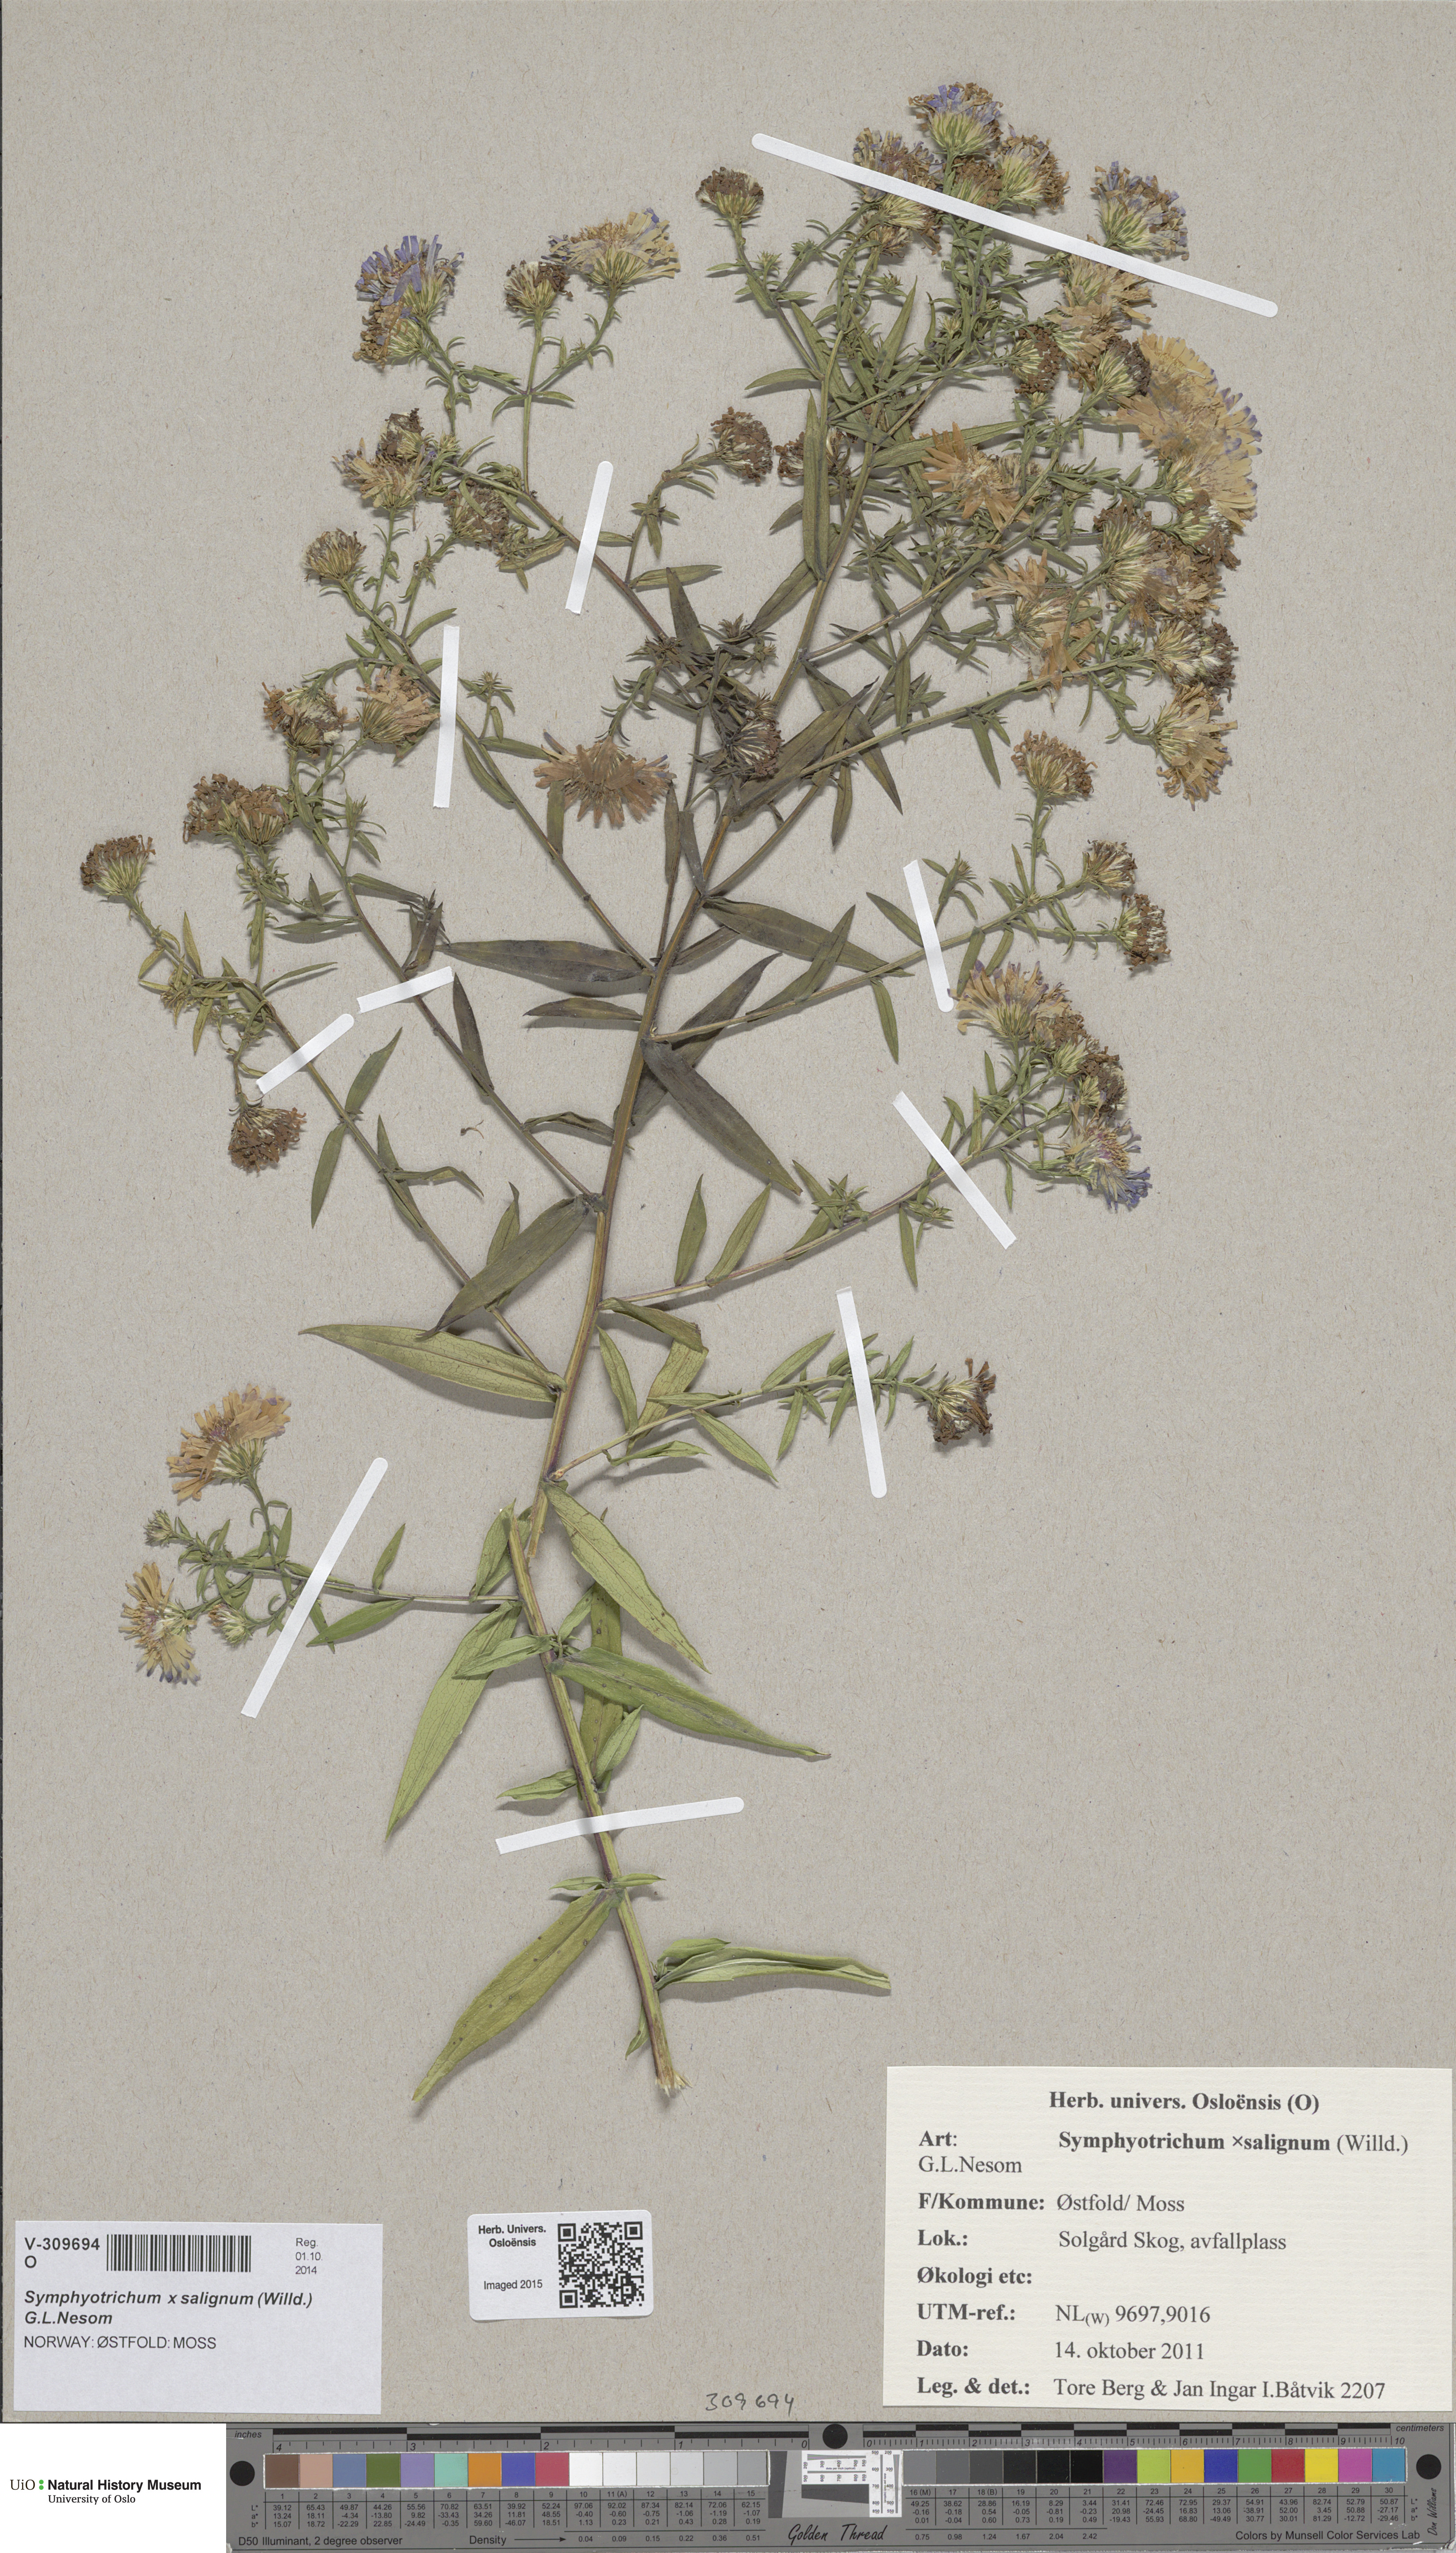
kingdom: Plantae
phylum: Tracheophyta
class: Magnoliopsida
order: Asterales
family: Asteraceae
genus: Symphyotrichum
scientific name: Symphyotrichum salignum
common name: Common michaelmas daisy
